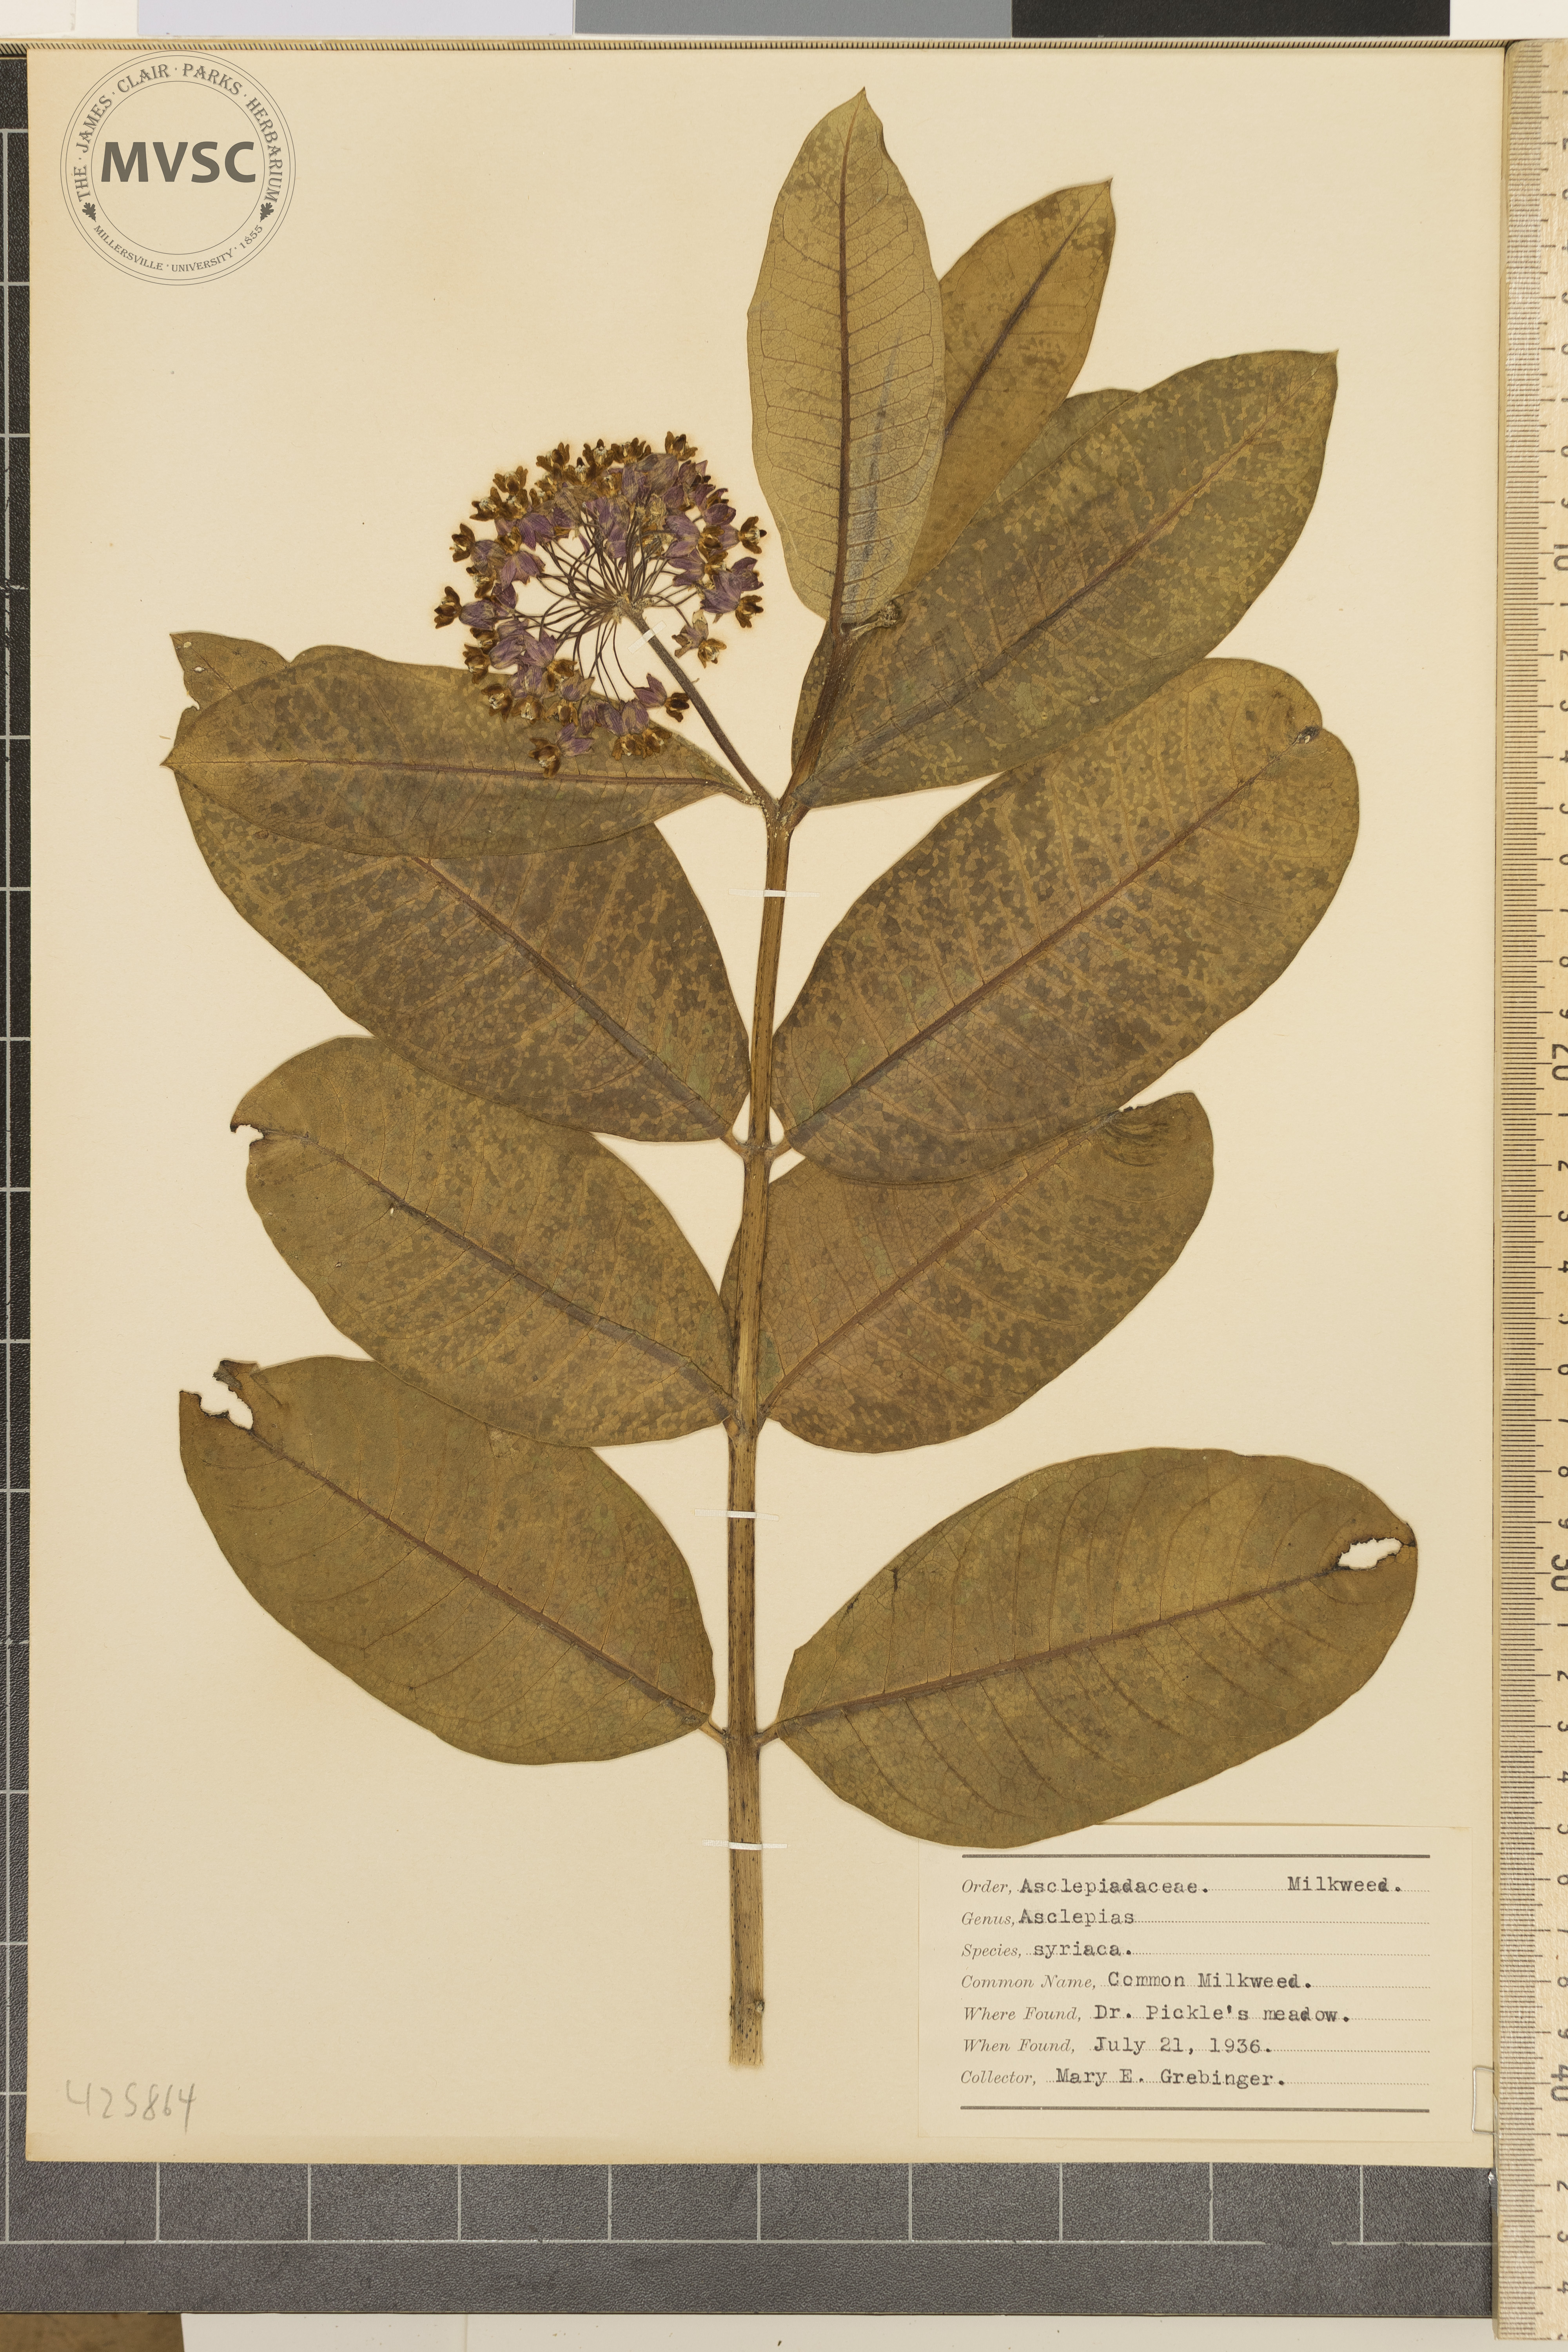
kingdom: Plantae
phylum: Tracheophyta
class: Magnoliopsida
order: Gentianales
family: Apocynaceae
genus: Asclepias
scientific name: Asclepias syriaca
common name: Common milkweed
